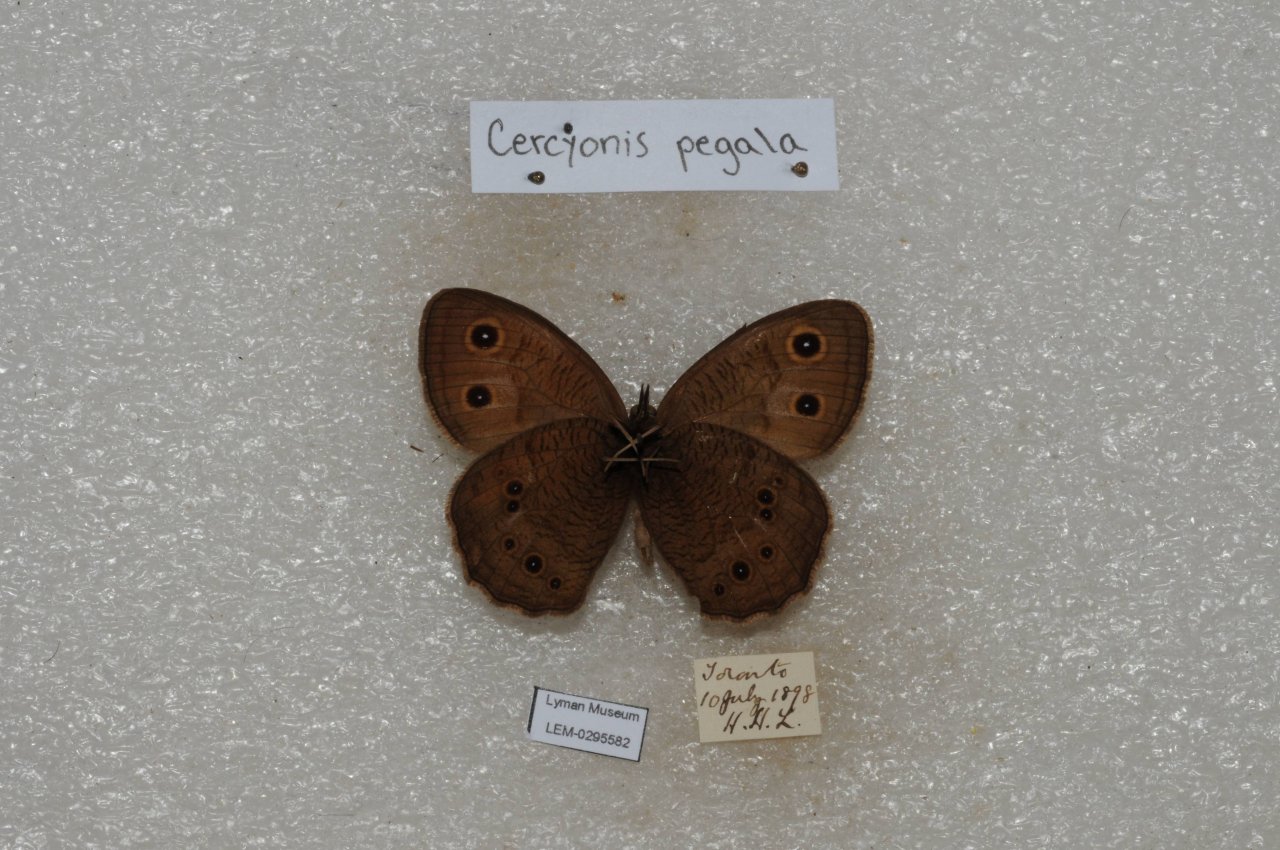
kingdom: Animalia
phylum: Arthropoda
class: Insecta
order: Lepidoptera
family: Nymphalidae
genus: Cercyonis
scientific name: Cercyonis pegala
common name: Common Wood-Nymph
